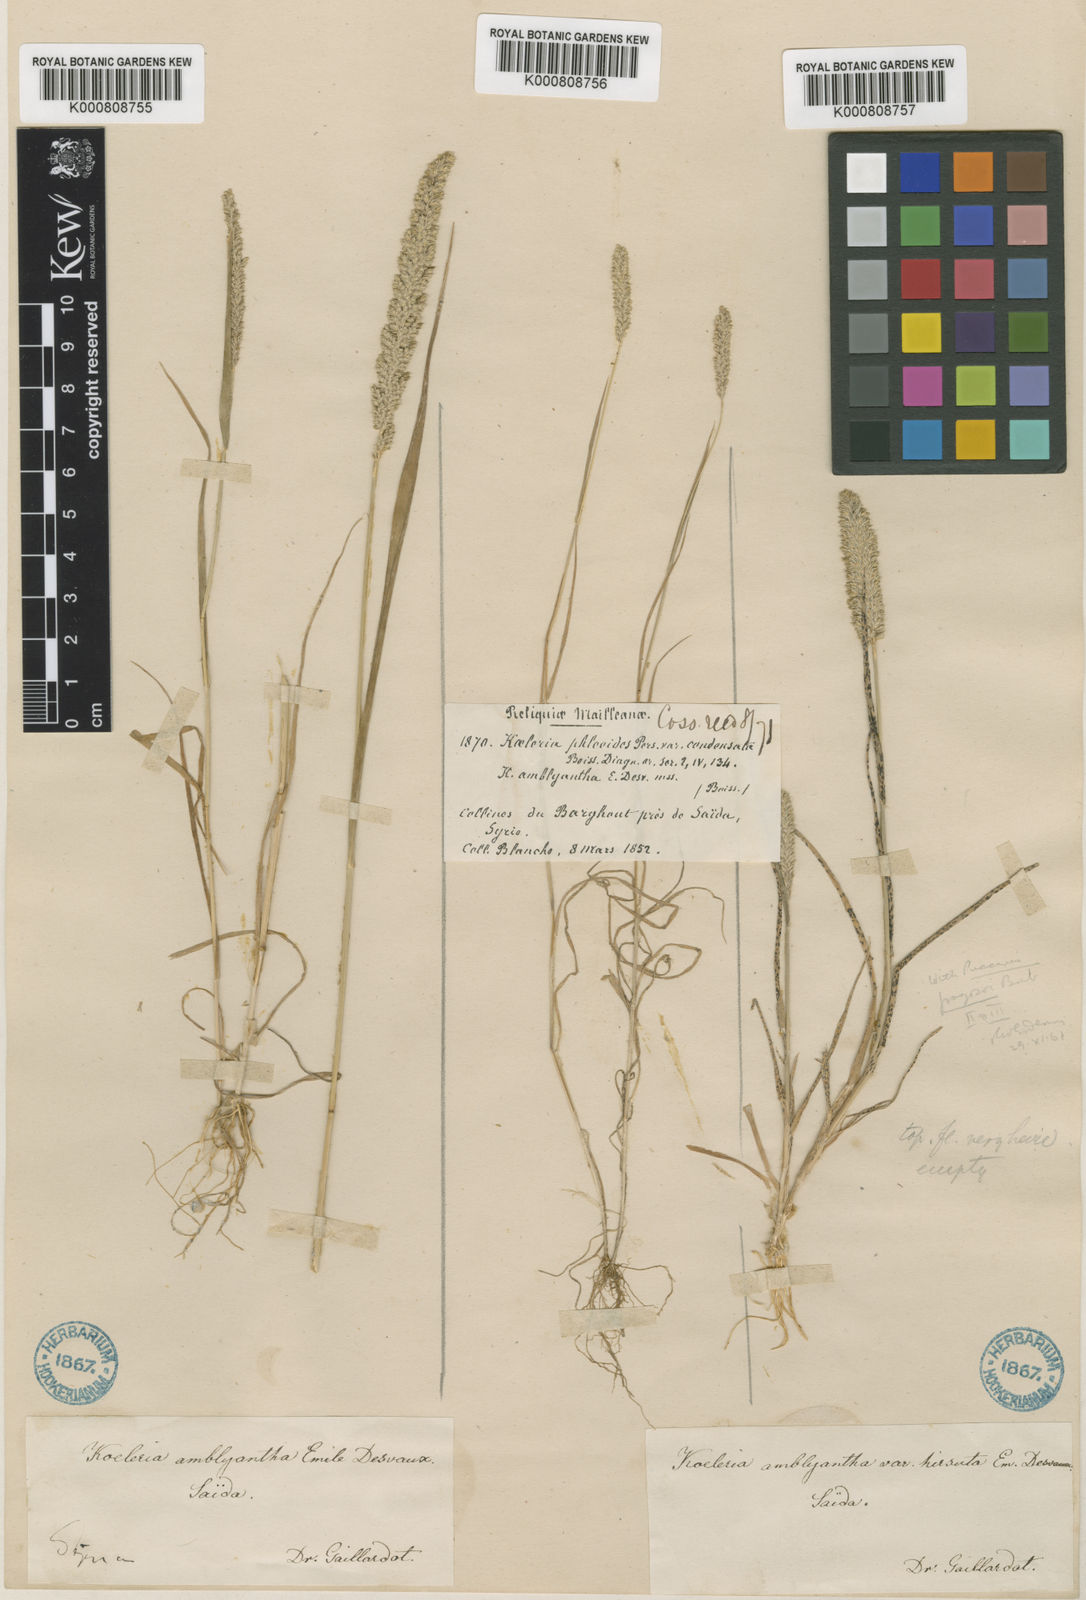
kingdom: Plantae
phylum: Tracheophyta
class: Liliopsida
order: Poales
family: Poaceae
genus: Rostraria
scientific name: Rostraria obtusiflora
